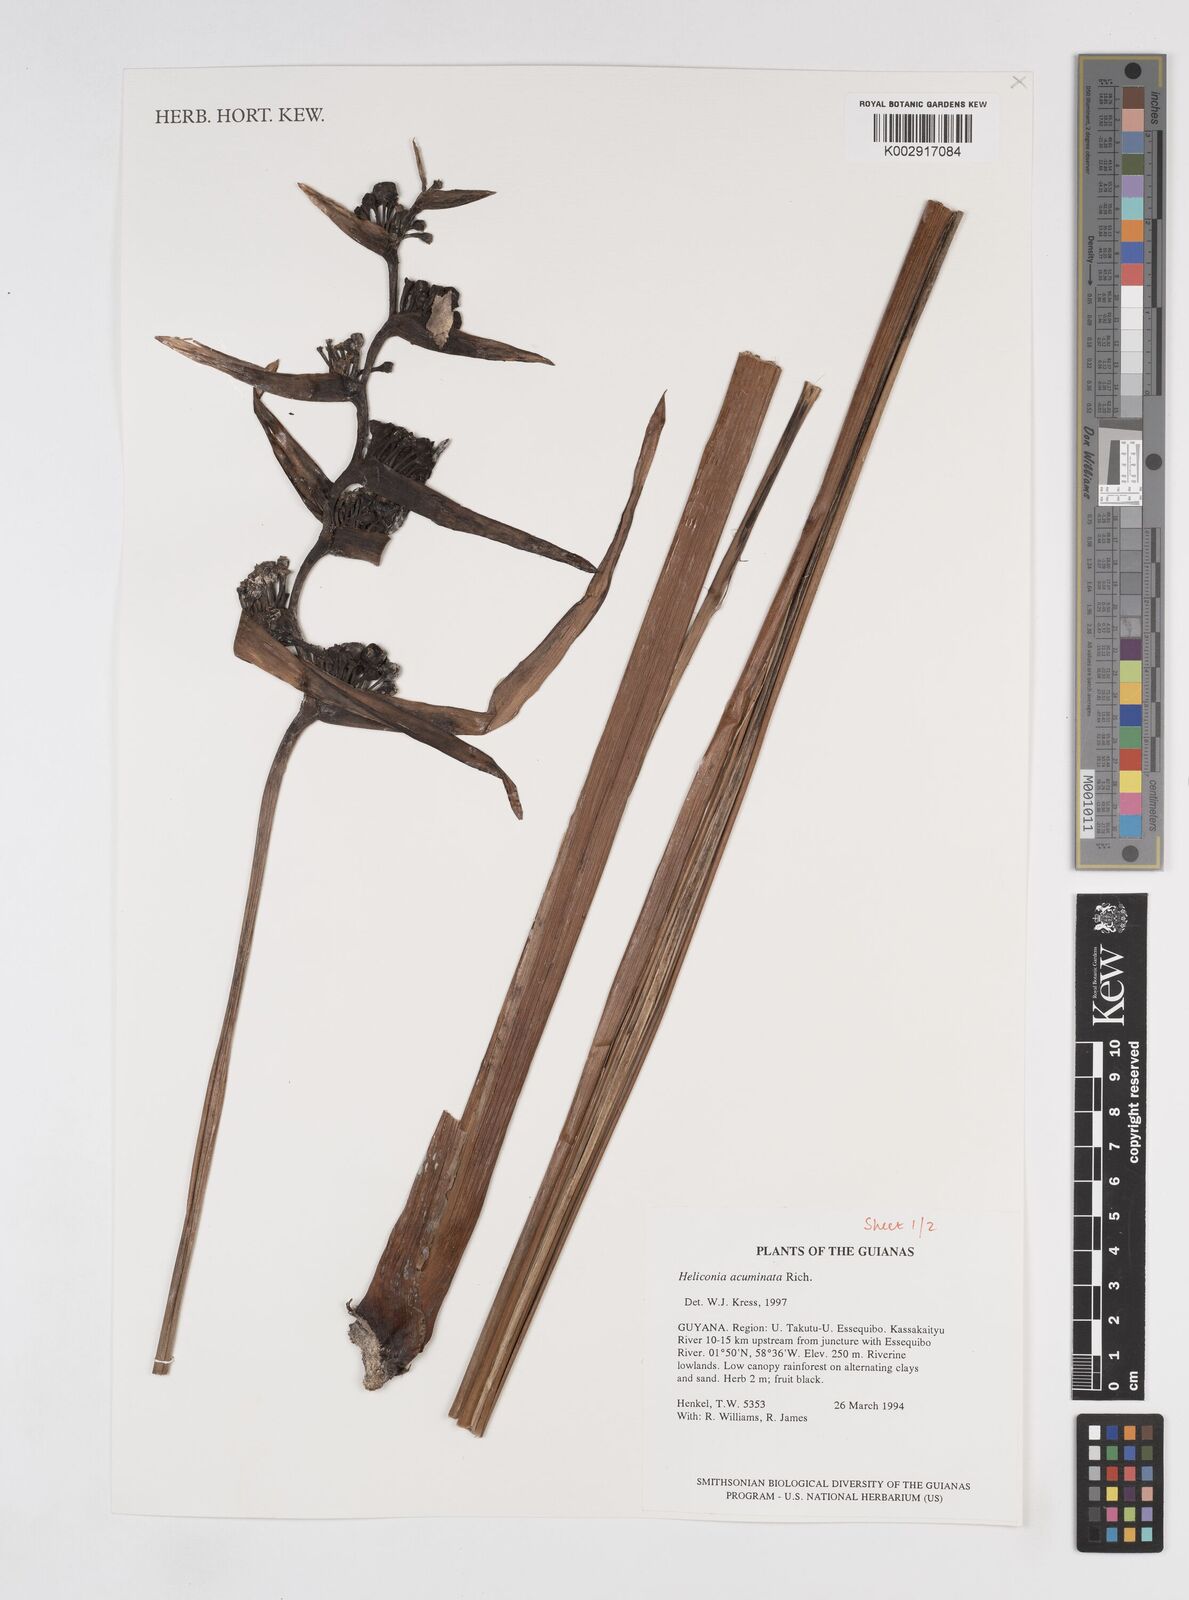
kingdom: Plantae
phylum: Tracheophyta
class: Liliopsida
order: Zingiberales
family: Heliconiaceae
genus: Heliconia
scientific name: Heliconia acuminata
